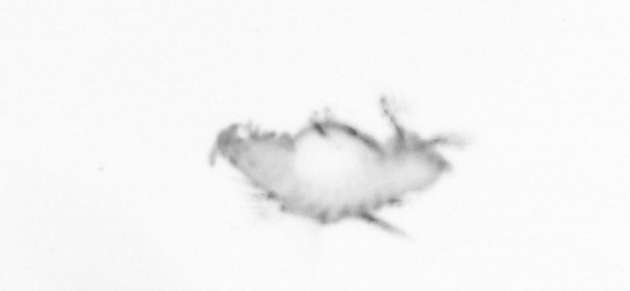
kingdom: Animalia
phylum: Annelida
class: Polychaeta
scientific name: Polychaeta
